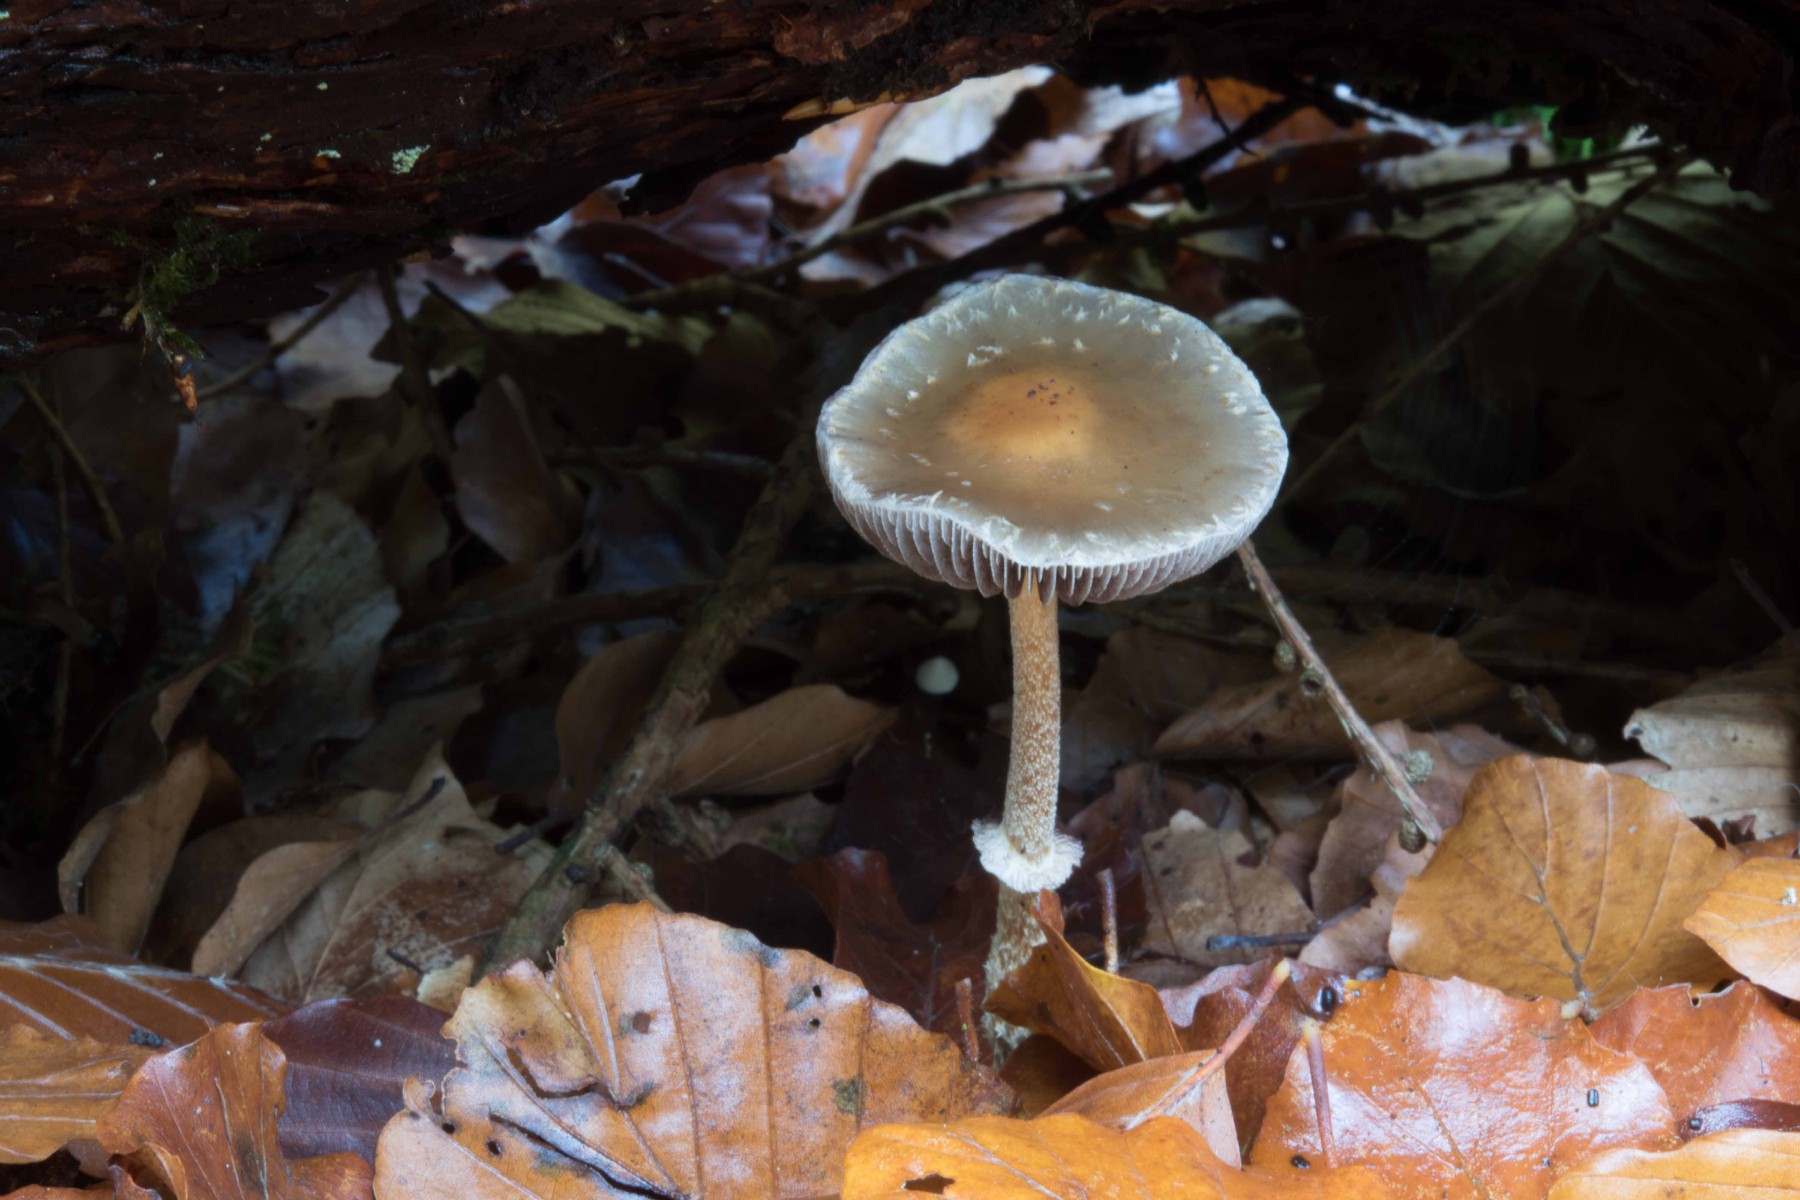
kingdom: Fungi
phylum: Basidiomycota
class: Agaricomycetes
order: Agaricales
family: Strophariaceae
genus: Leratiomyces
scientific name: Leratiomyces squamosus
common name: skællet bredblad
